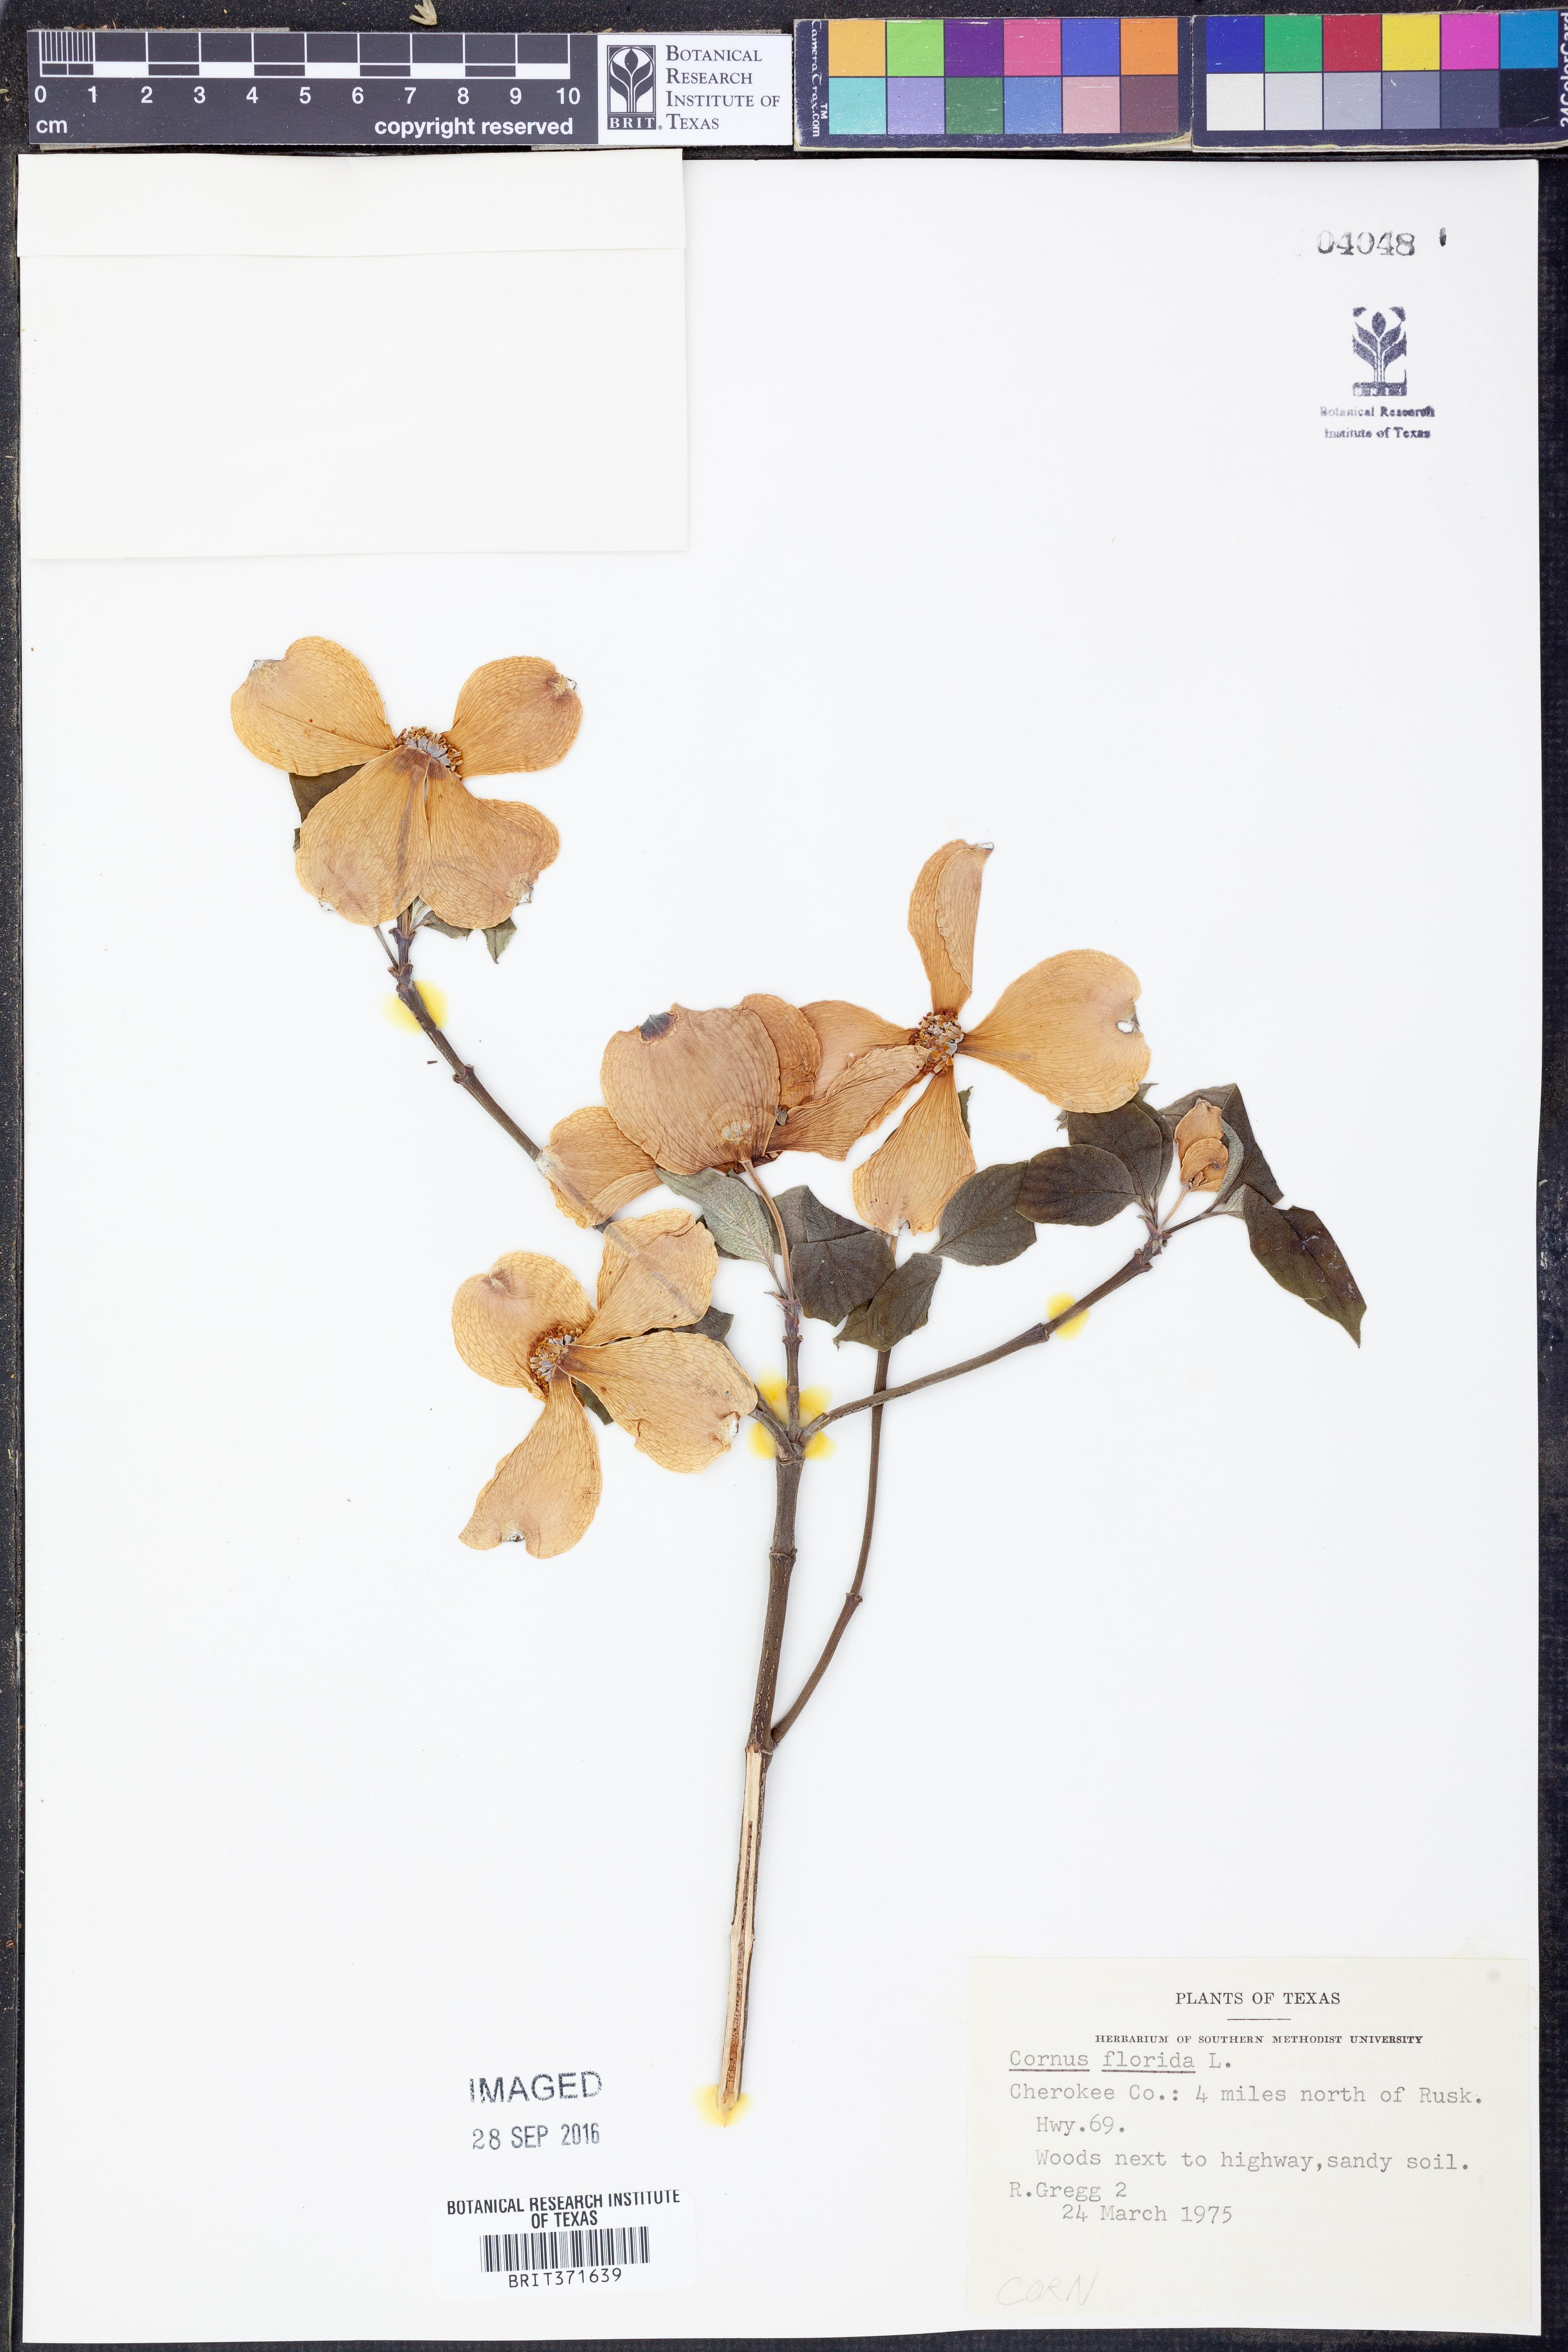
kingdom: Plantae
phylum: Tracheophyta
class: Magnoliopsida
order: Cornales
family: Cornaceae
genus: Cornus
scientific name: Cornus florida
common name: Flowering dogwood
